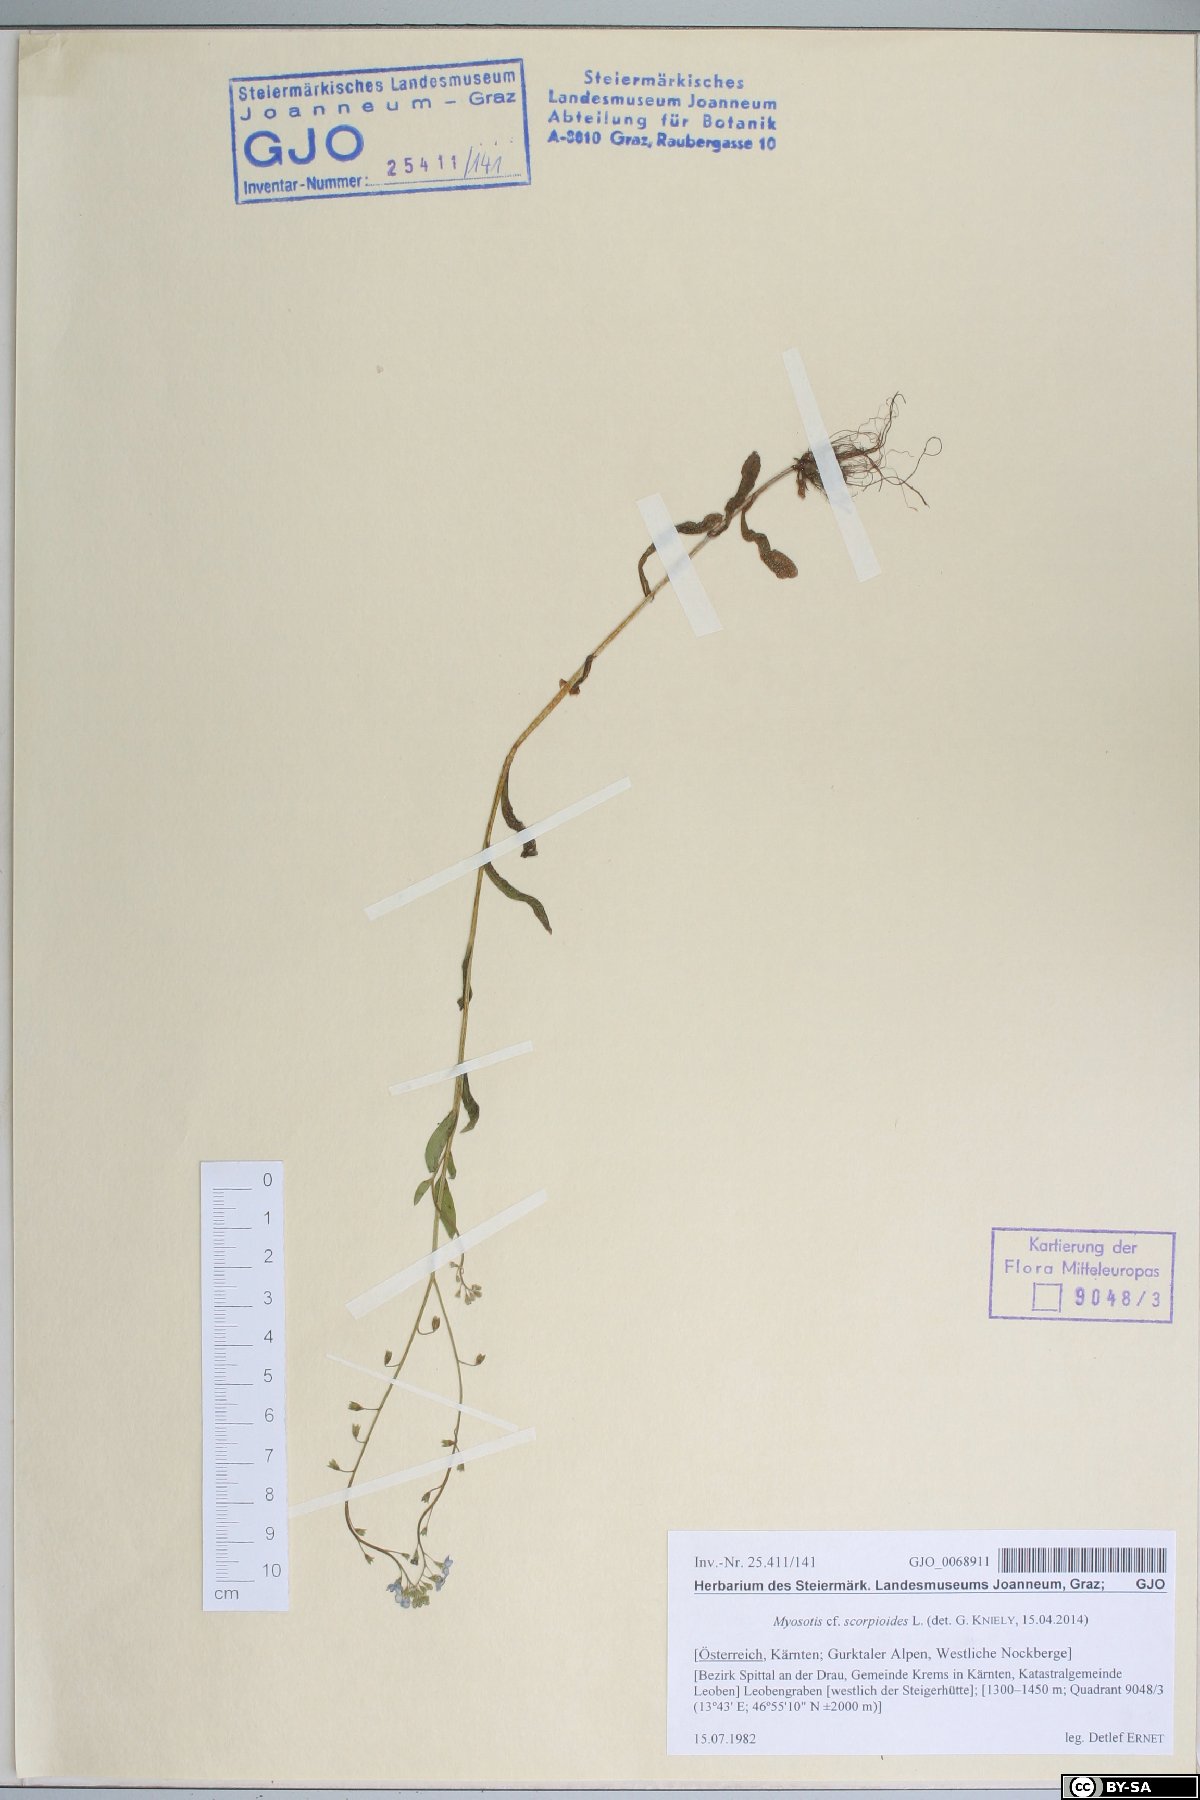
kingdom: Plantae
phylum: Tracheophyta
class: Magnoliopsida
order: Boraginales
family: Boraginaceae
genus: Myosotis
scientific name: Myosotis scorpioides
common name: Water forget-me-not
